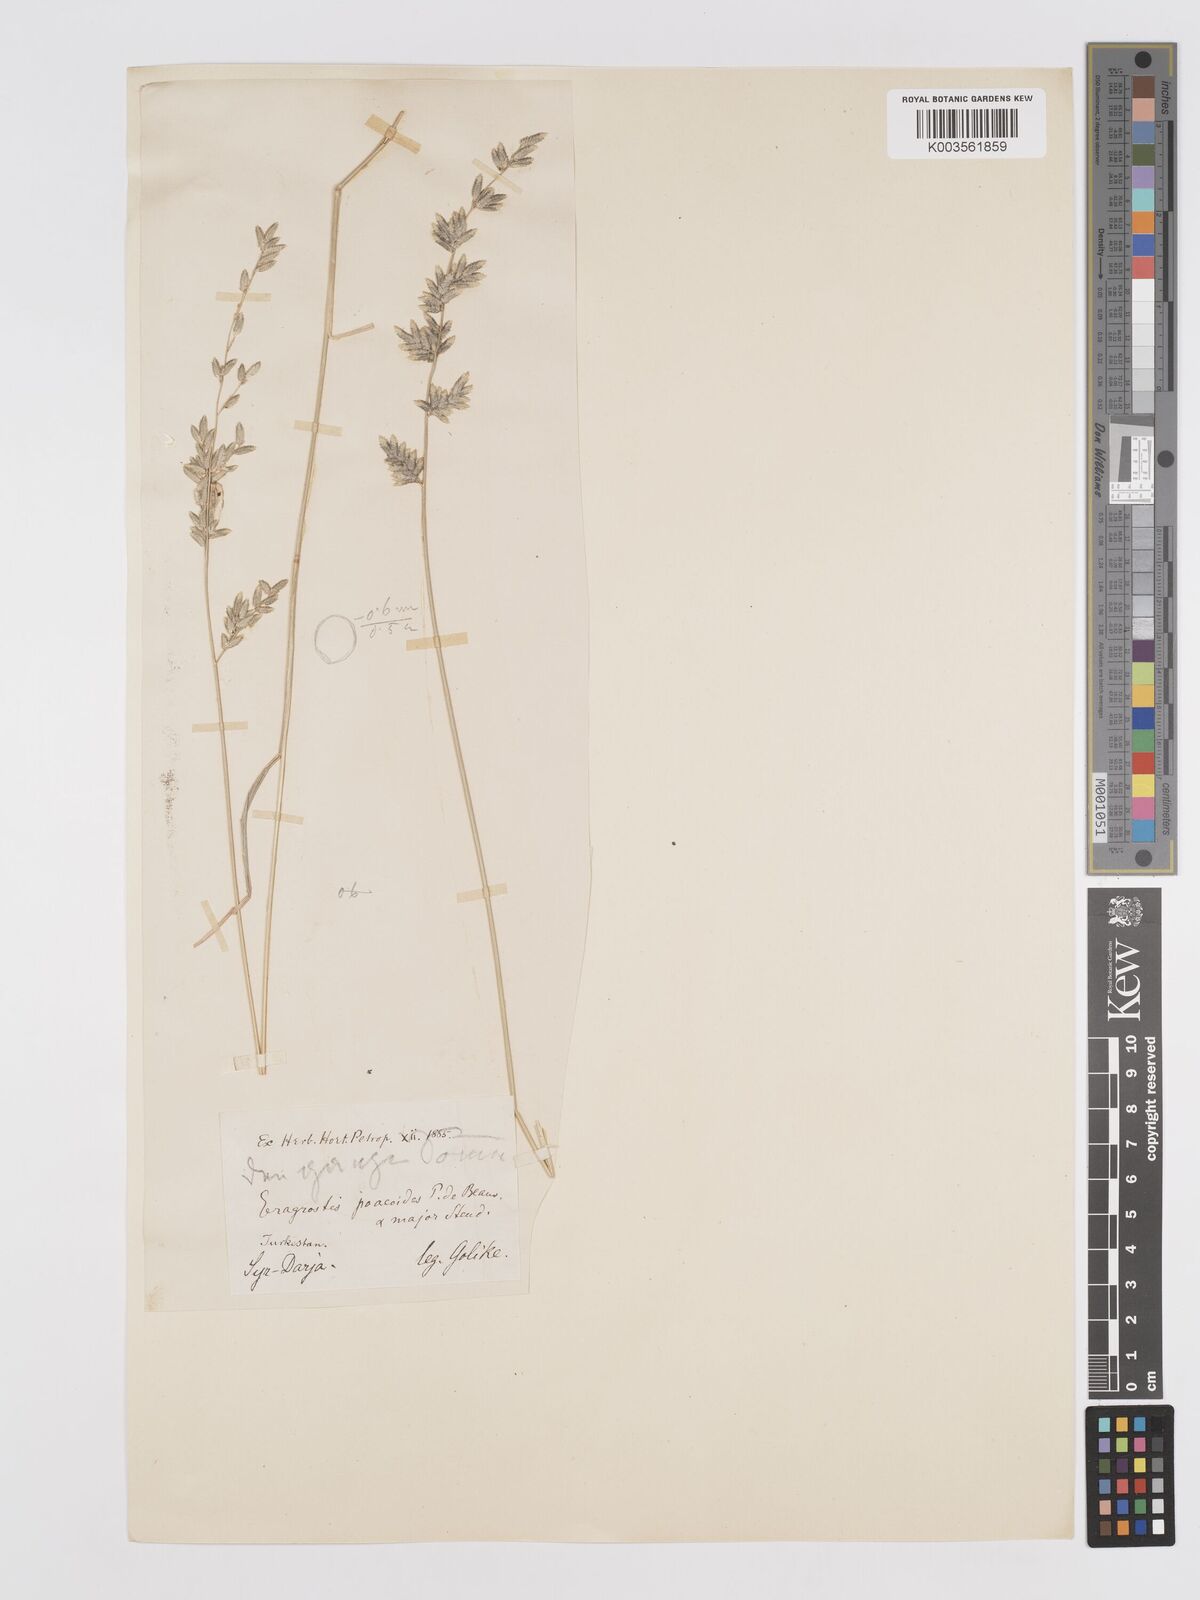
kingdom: Plantae
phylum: Tracheophyta
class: Liliopsida
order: Poales
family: Poaceae
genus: Eragrostis
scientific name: Eragrostis cilianensis
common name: Stinkgrass
